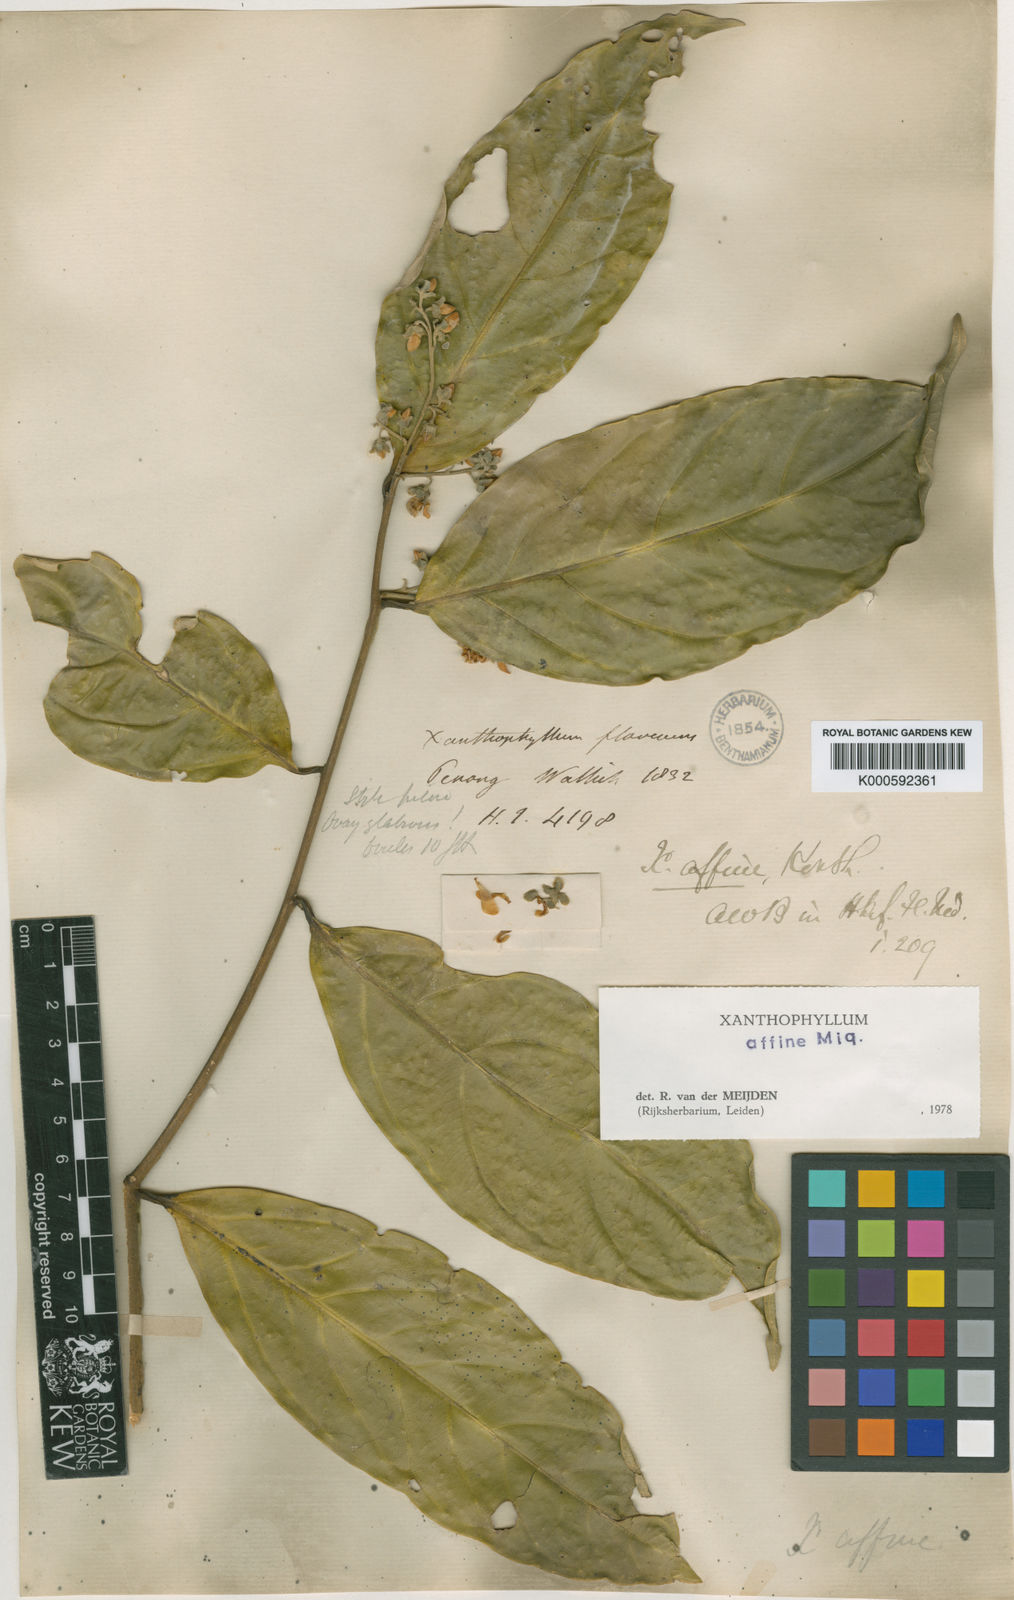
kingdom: Plantae
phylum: Tracheophyta
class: Magnoliopsida
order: Fabales
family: Polygalaceae
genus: Xanthophyllum
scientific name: Xanthophyllum flavescens
